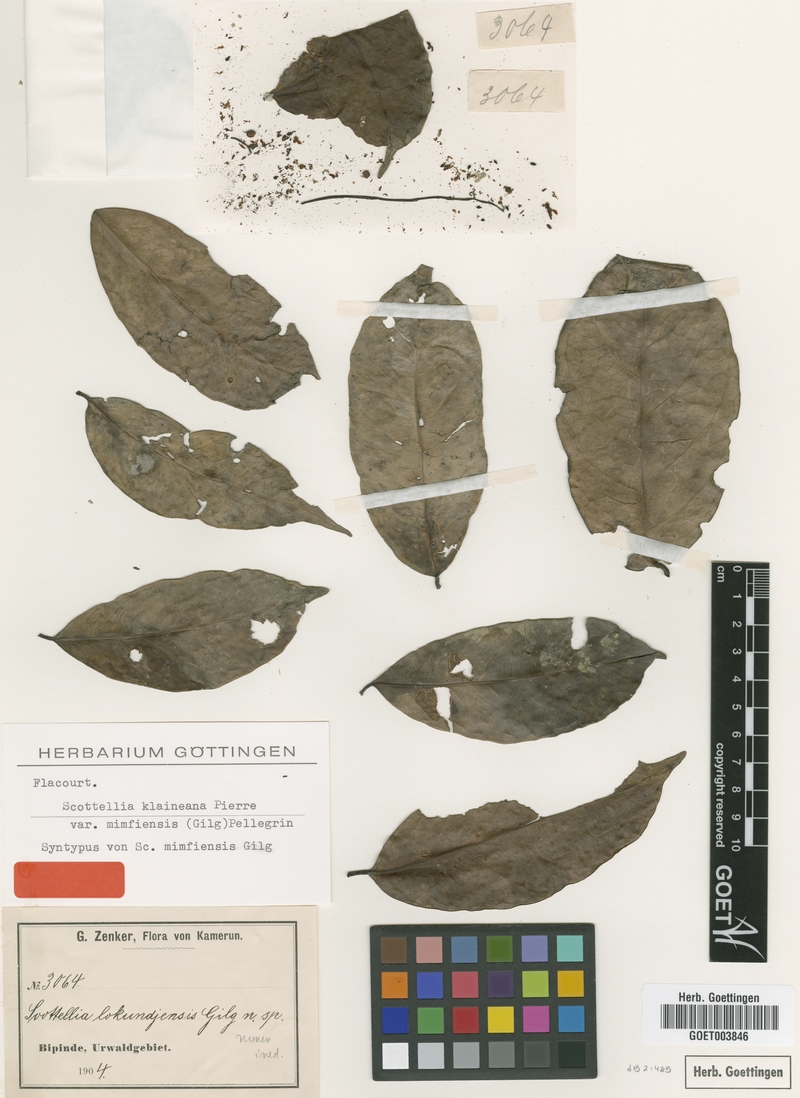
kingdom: Plantae
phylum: Tracheophyta
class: Magnoliopsida
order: Malpighiales
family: Achariaceae
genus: Scottellia
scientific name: Scottellia klaineana
